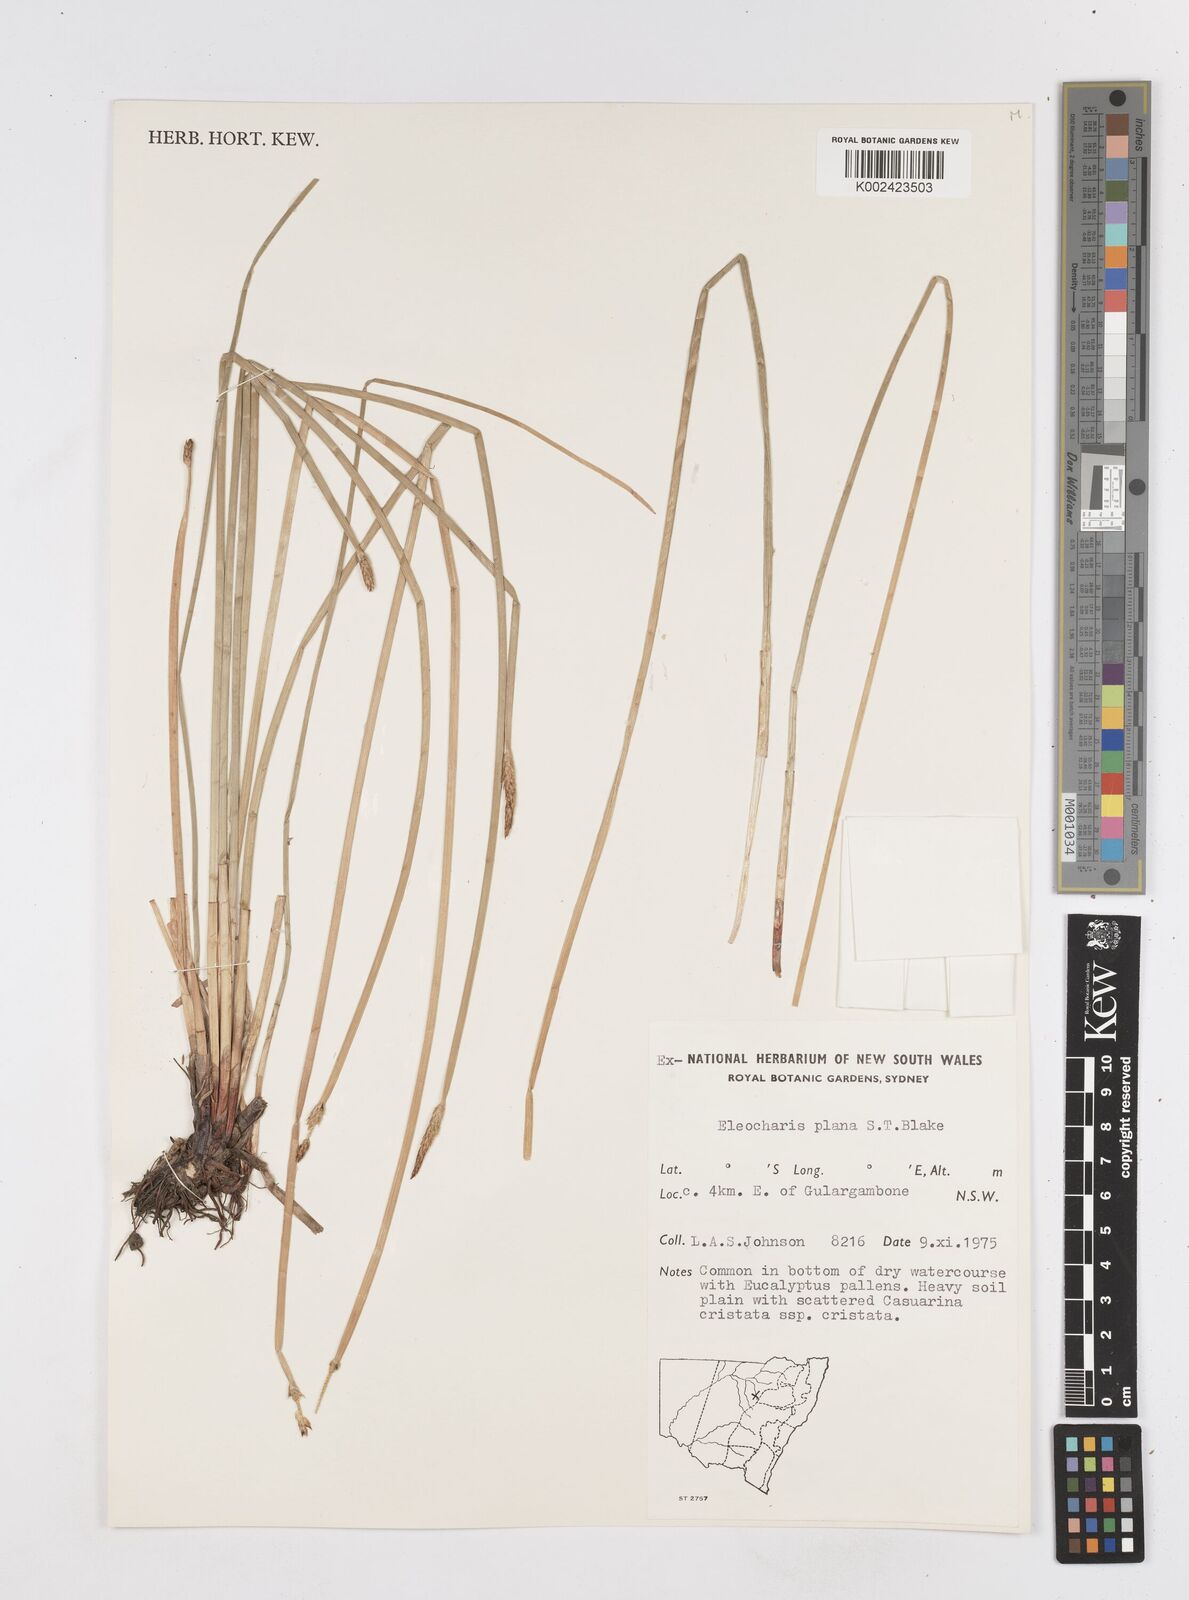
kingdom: Plantae
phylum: Tracheophyta
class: Liliopsida
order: Poales
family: Cyperaceae
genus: Eleocharis
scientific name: Eleocharis plana
